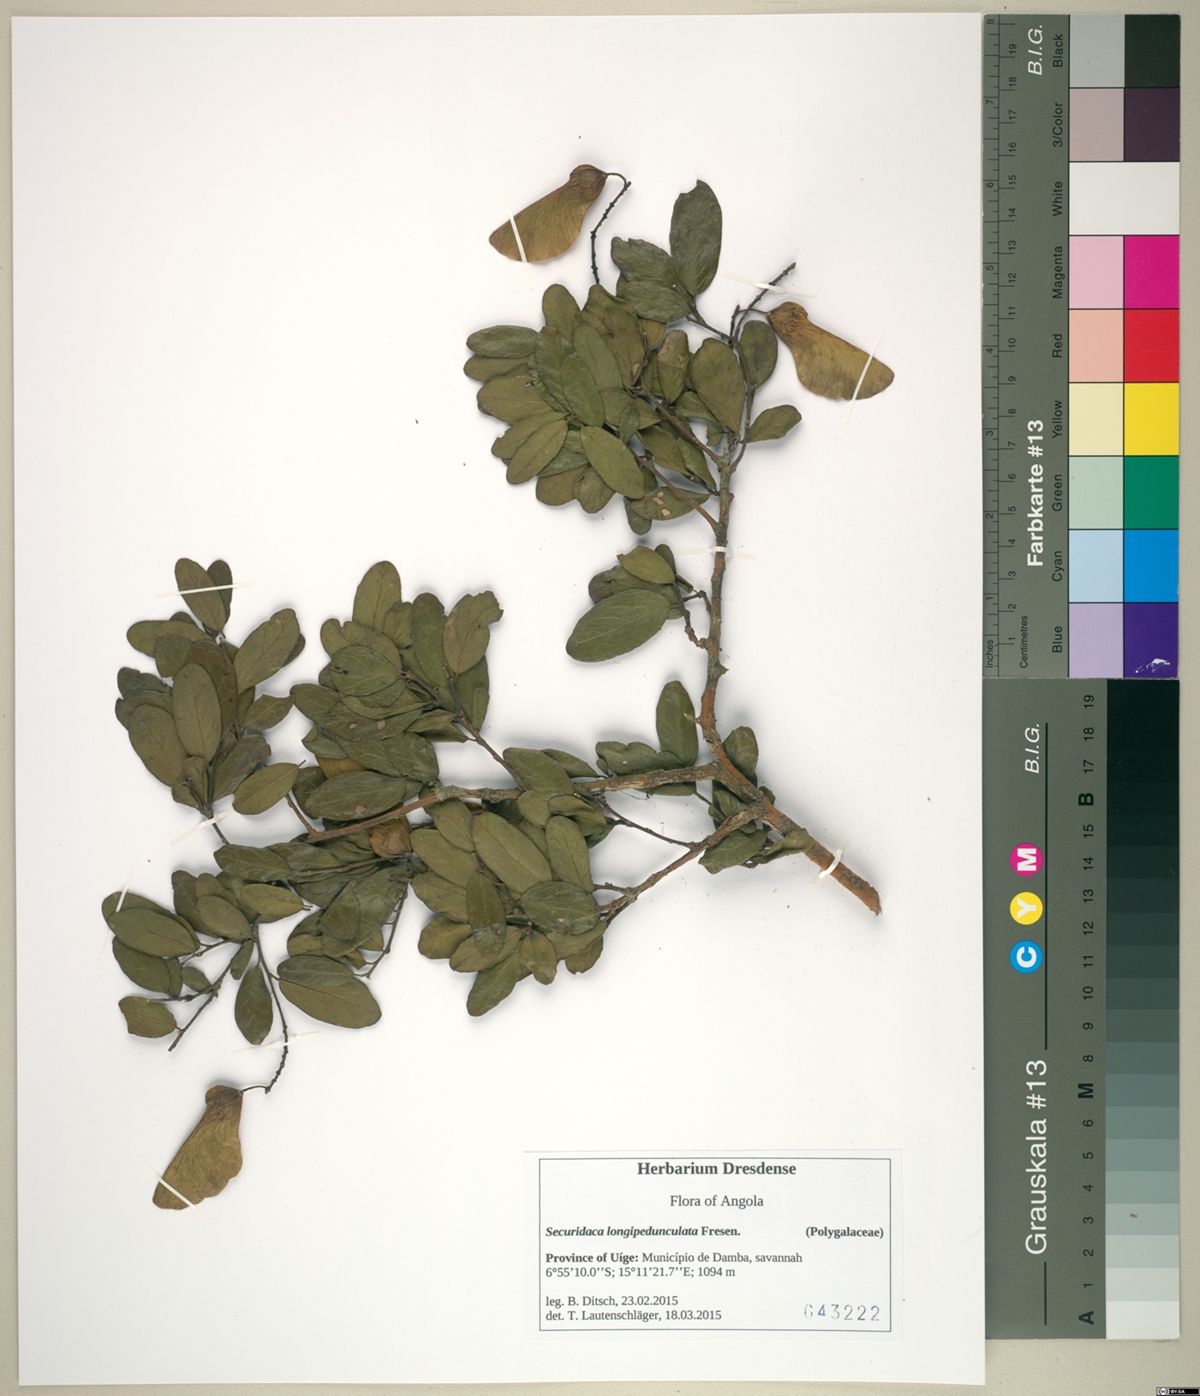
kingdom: Plantae
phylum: Tracheophyta
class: Magnoliopsida
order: Fabales
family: Polygalaceae
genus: Securidaca
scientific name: Securidaca longepedunculata
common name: Violet tree
